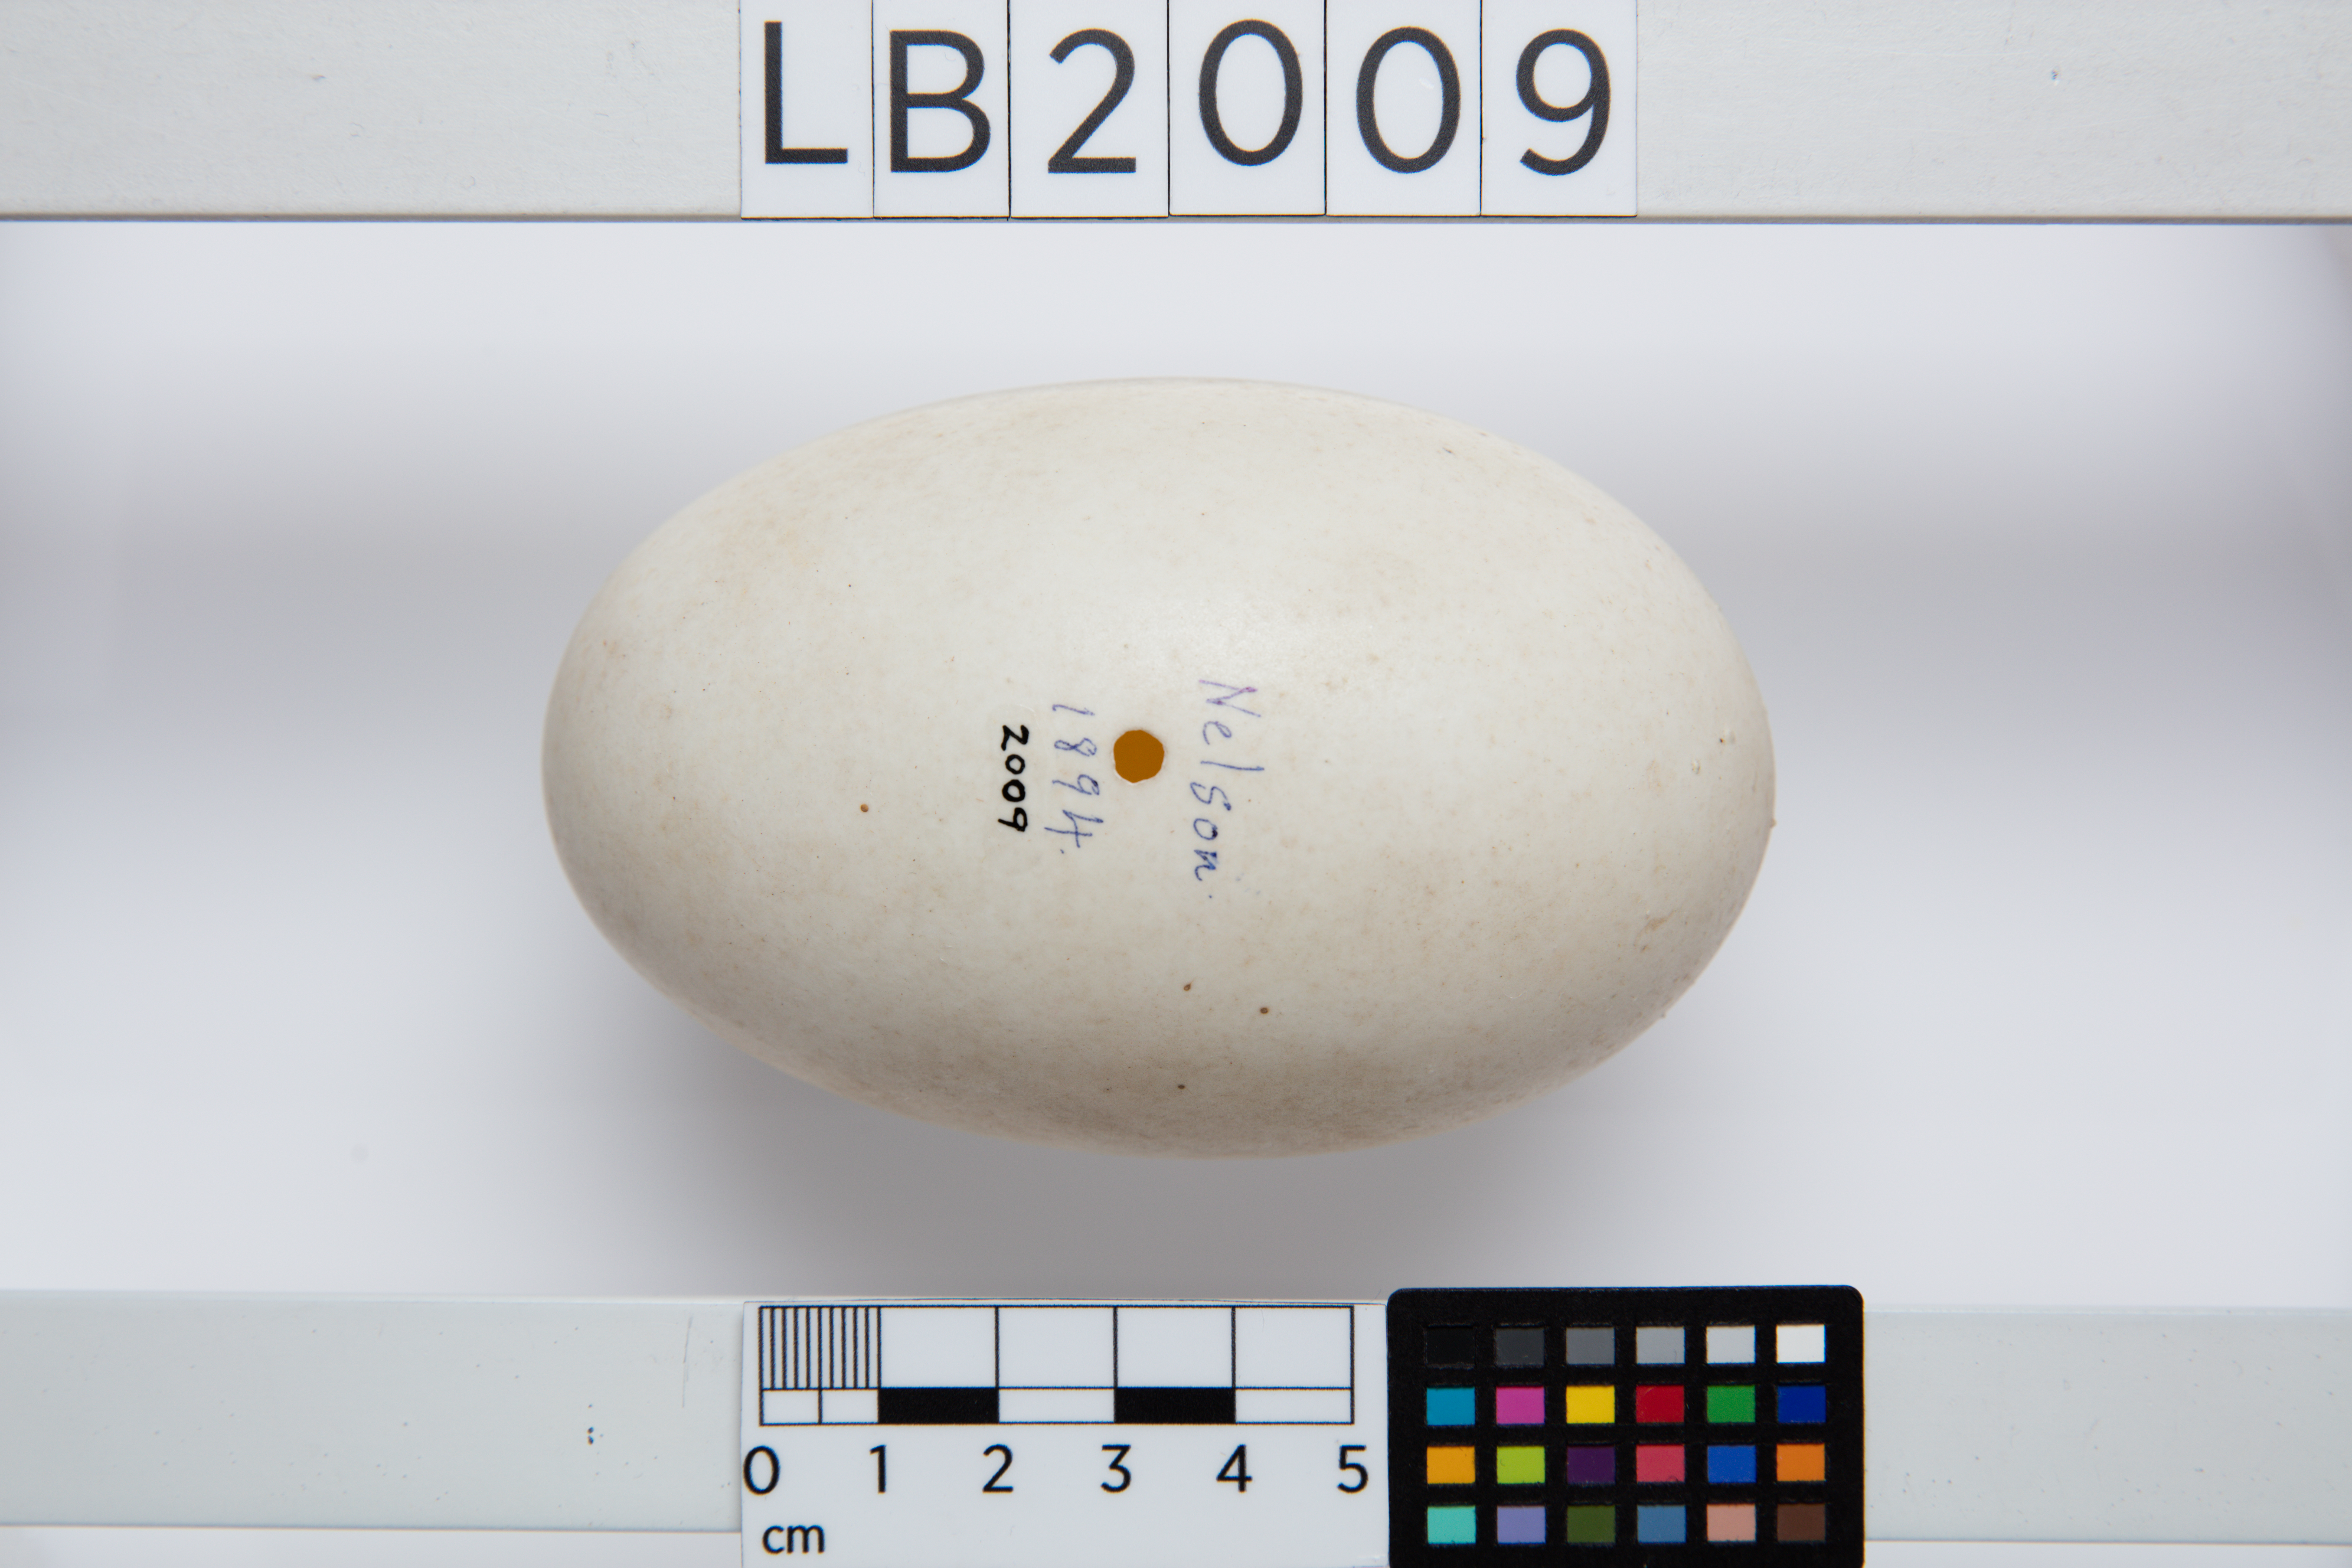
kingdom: Animalia
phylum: Chordata
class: Aves
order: Apterygiformes
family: Apterygidae
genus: Apteryx
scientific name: Apteryx owenii
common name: Little spotted kiwi
